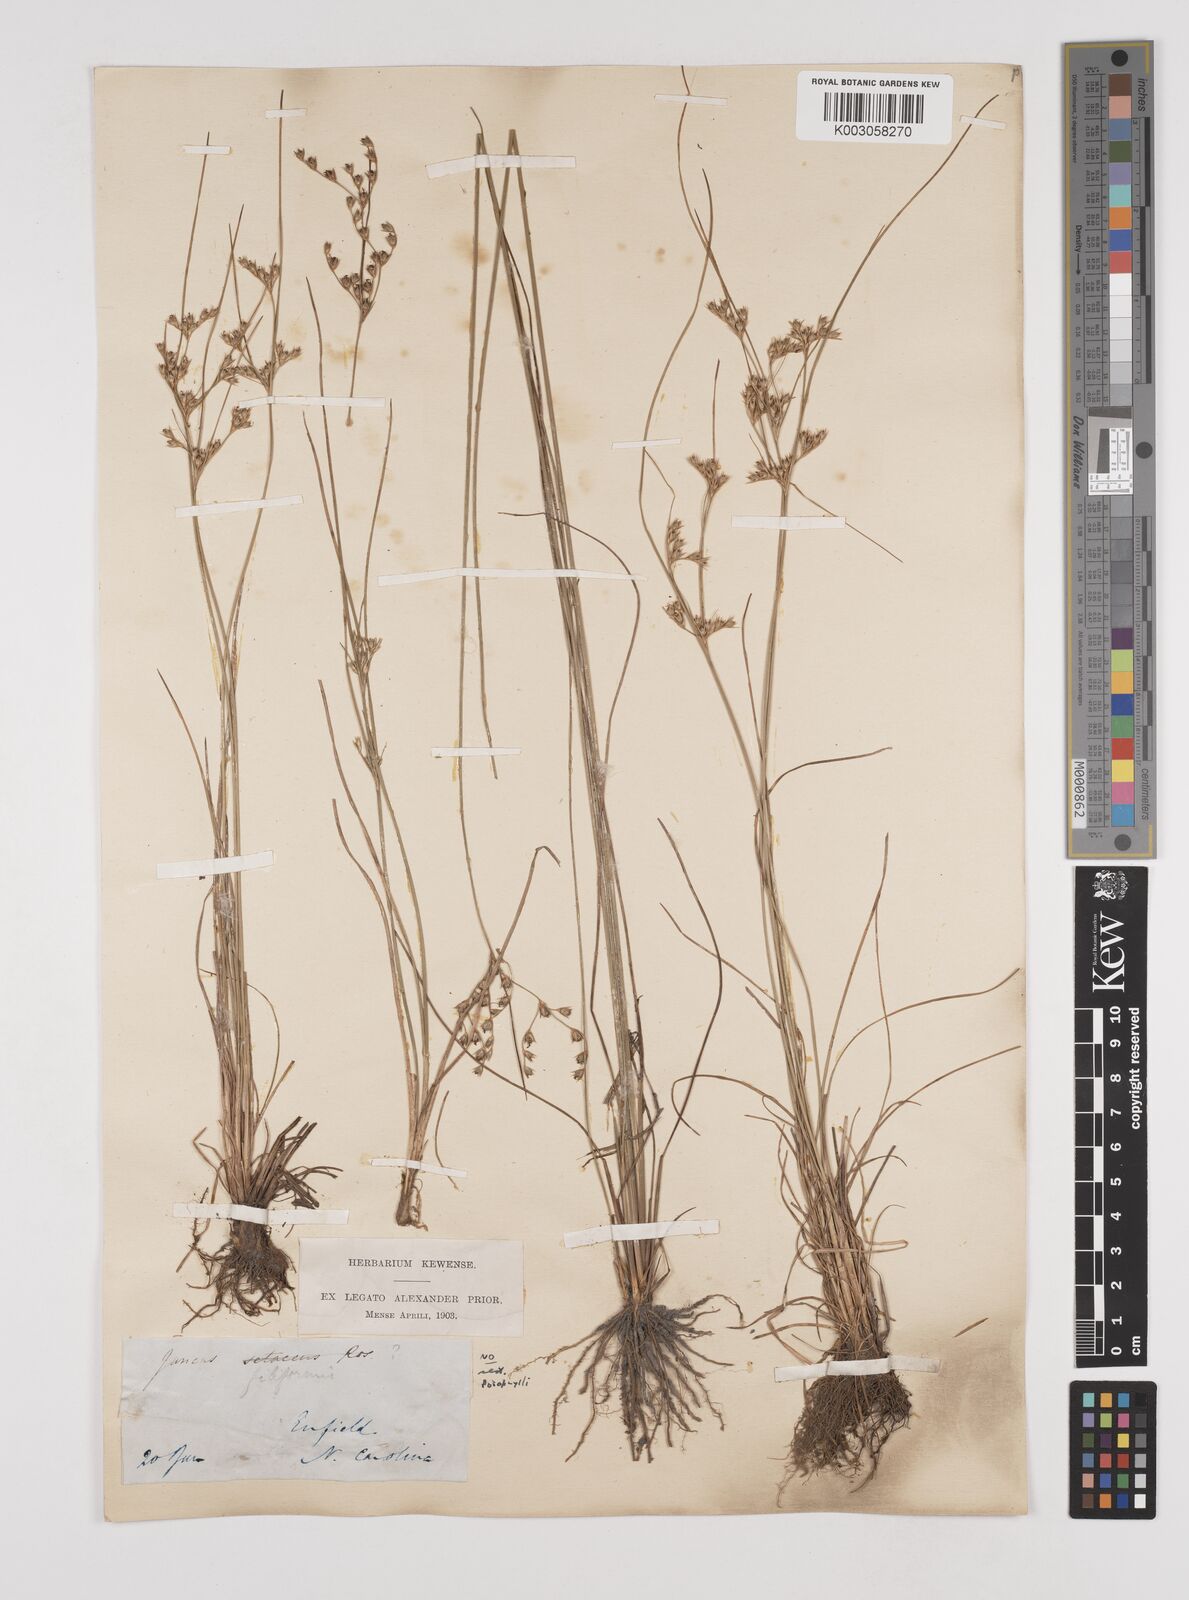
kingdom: Plantae
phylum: Tracheophyta
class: Liliopsida
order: Poales
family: Juncaceae
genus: Juncus
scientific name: Juncus
